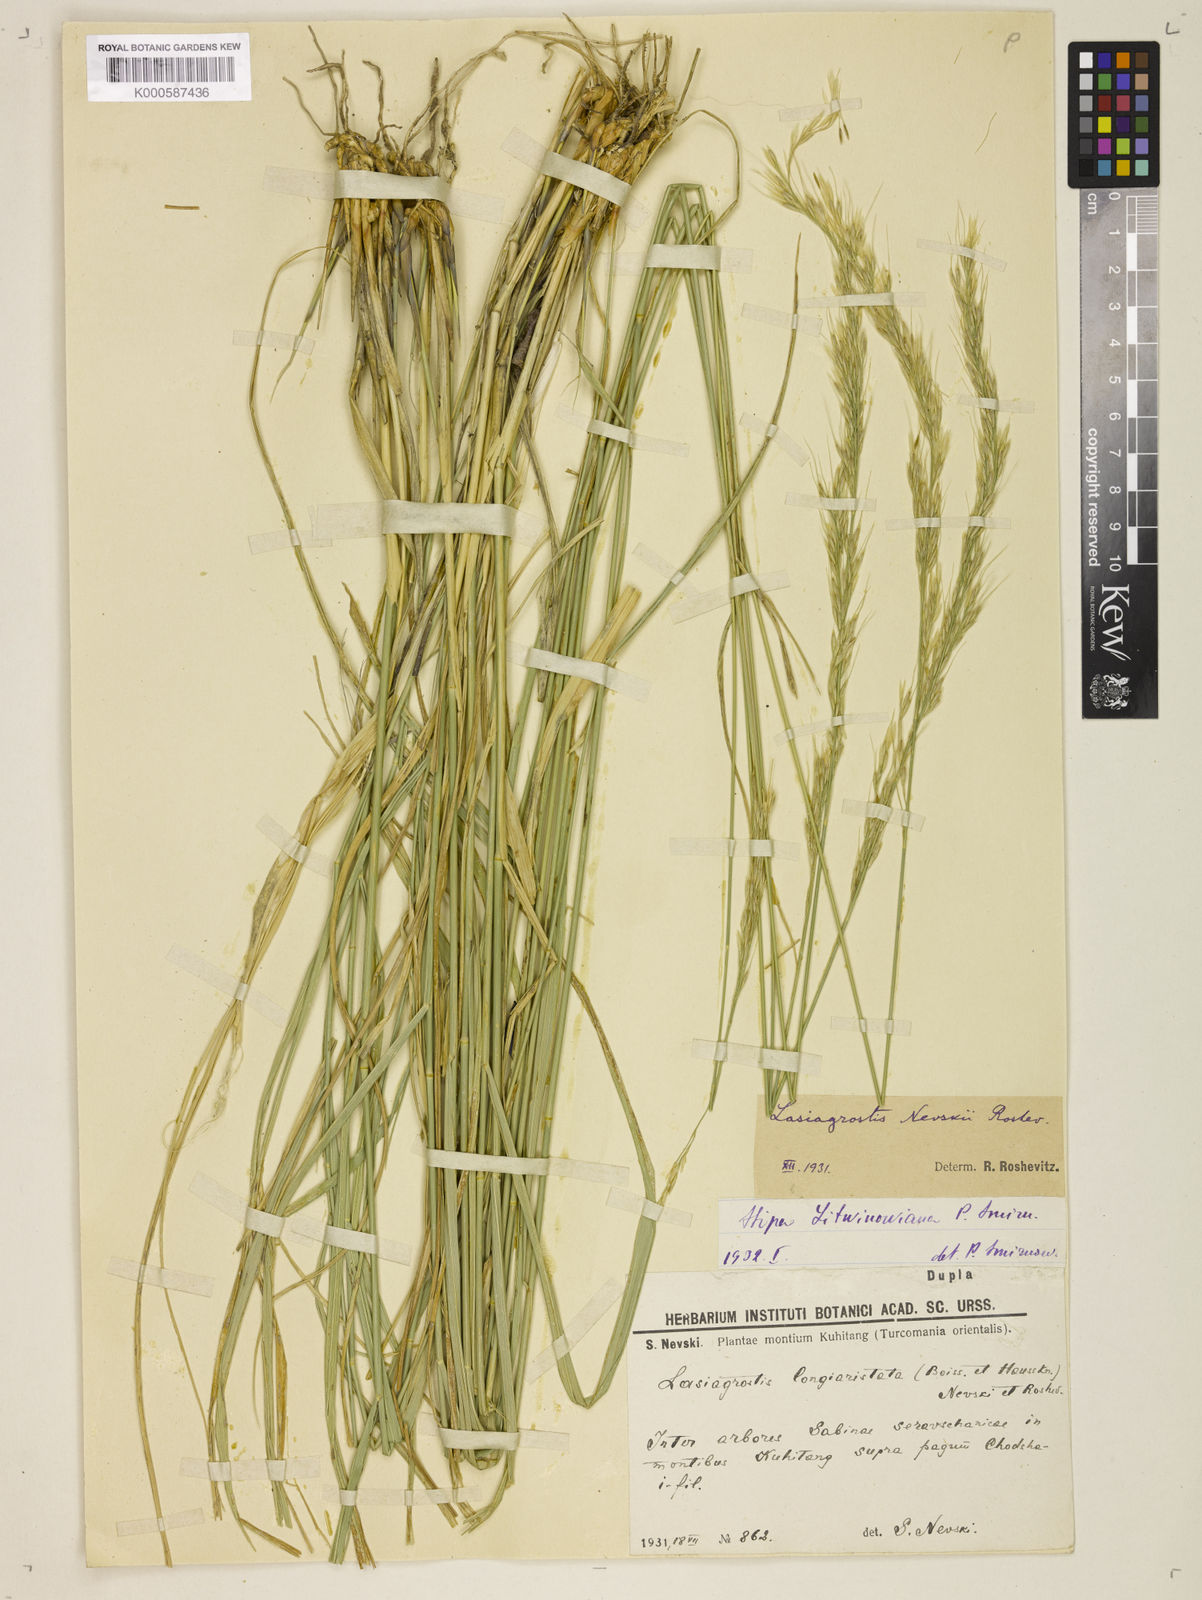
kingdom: Plantae
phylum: Tracheophyta
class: Liliopsida
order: Poales
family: Poaceae
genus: Achnatherum
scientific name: Achnatherum turcomanicum
